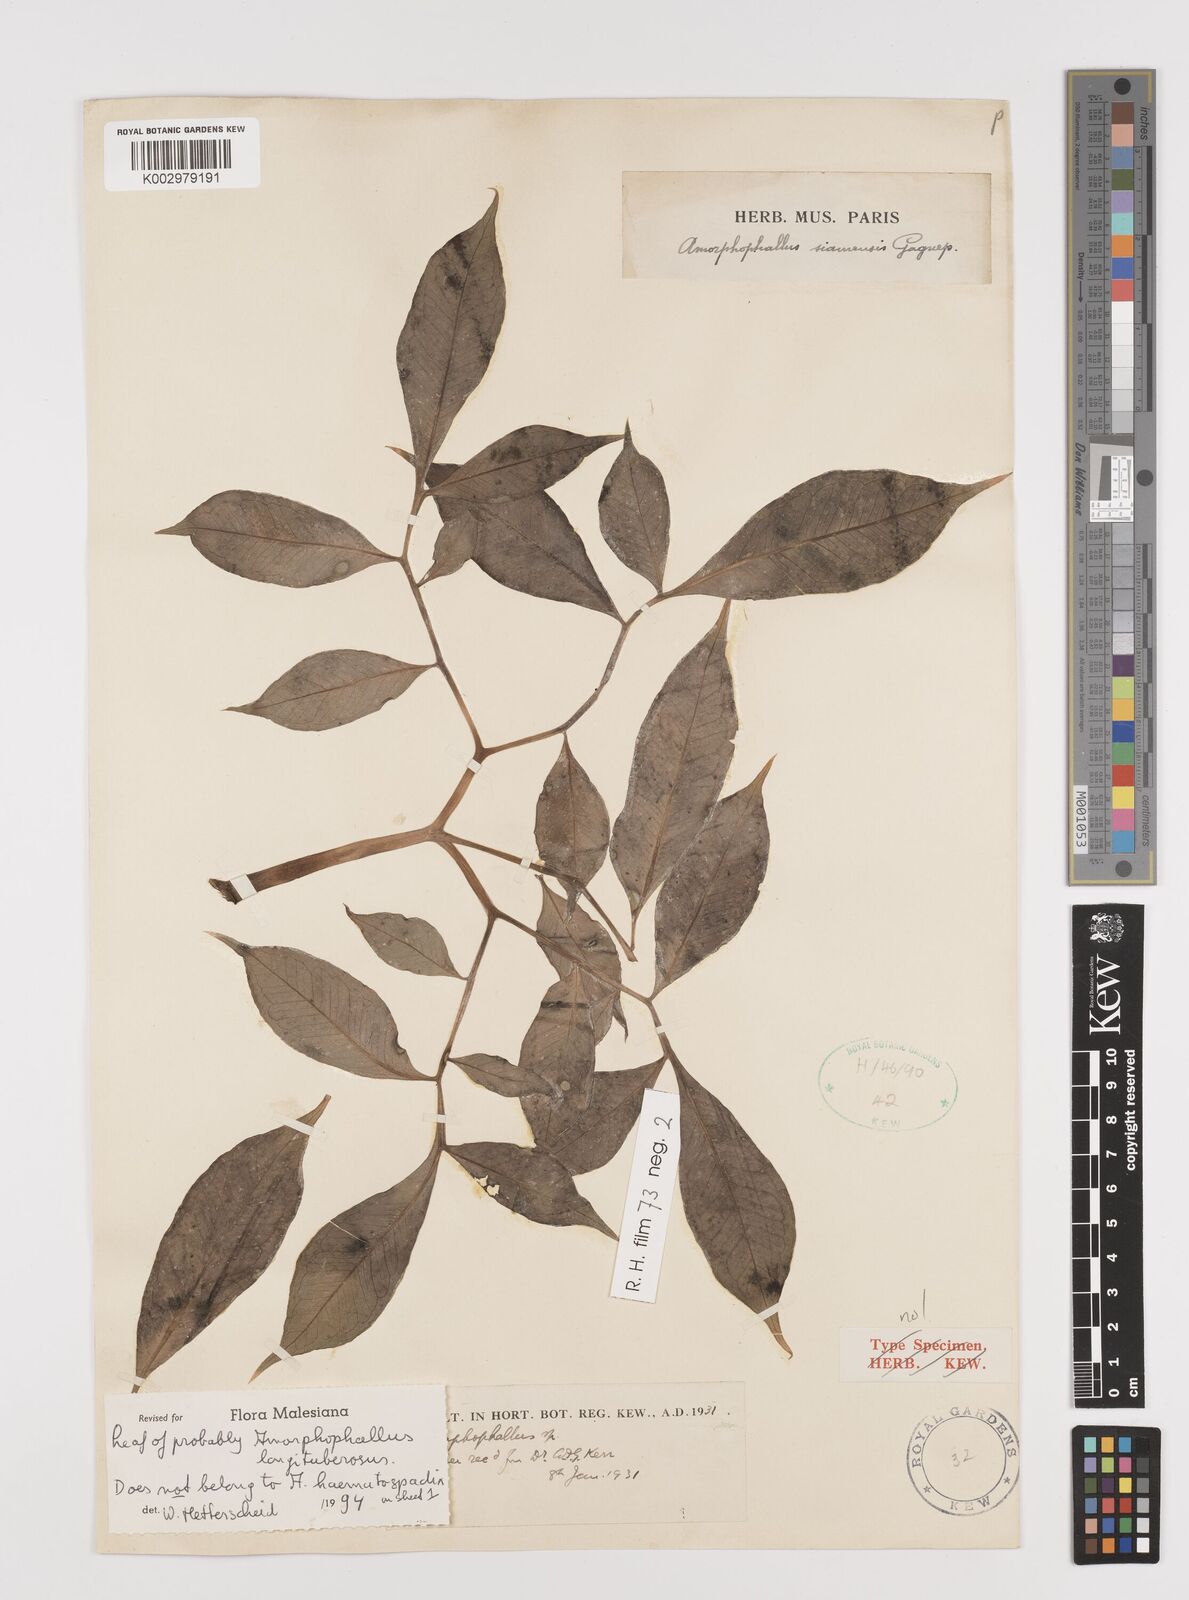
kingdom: Plantae
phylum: Tracheophyta
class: Liliopsida
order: Alismatales
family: Araceae
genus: Amorphophallus
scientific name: Amorphophallus longituberosus
